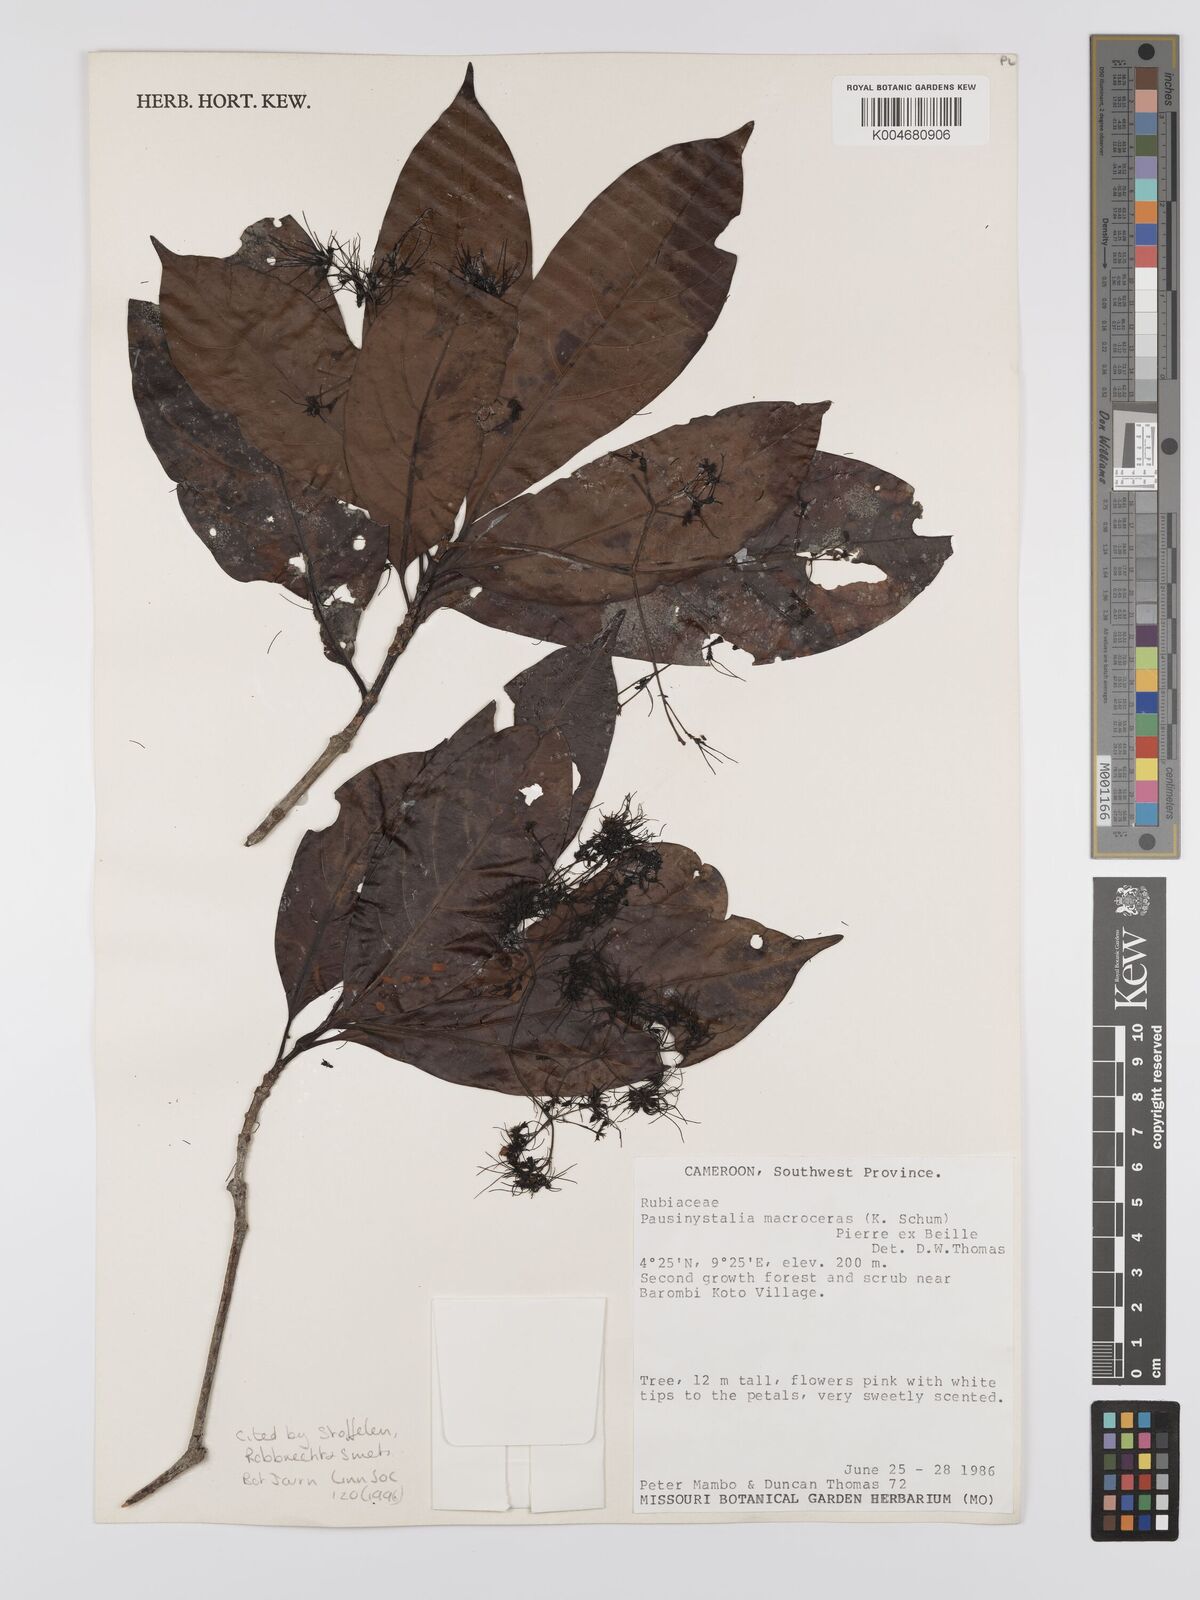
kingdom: Plantae
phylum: Tracheophyta
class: Magnoliopsida
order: Gentianales
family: Rubiaceae
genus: Corynanthe
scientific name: Corynanthe macroceras
